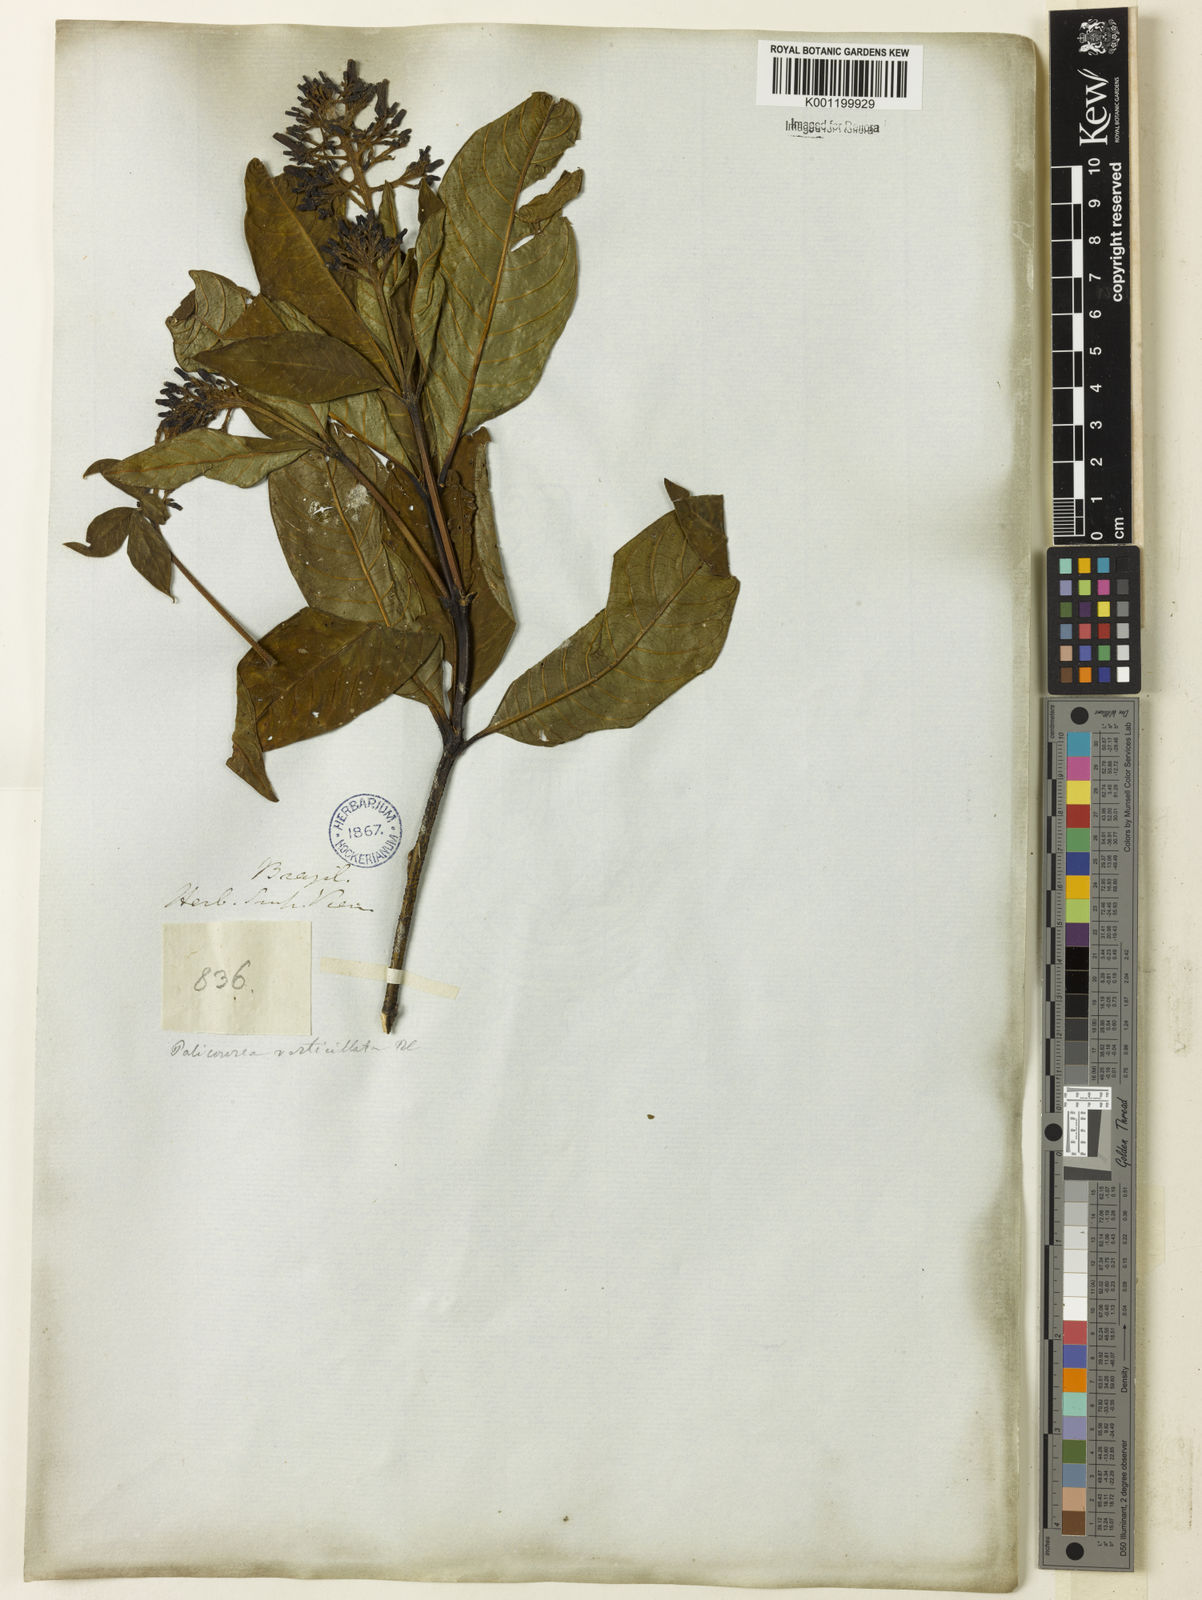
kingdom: Plantae
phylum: Tracheophyta
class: Magnoliopsida
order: Gentianales
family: Rubiaceae
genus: Palicourea
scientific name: Palicourea tetraphylla
